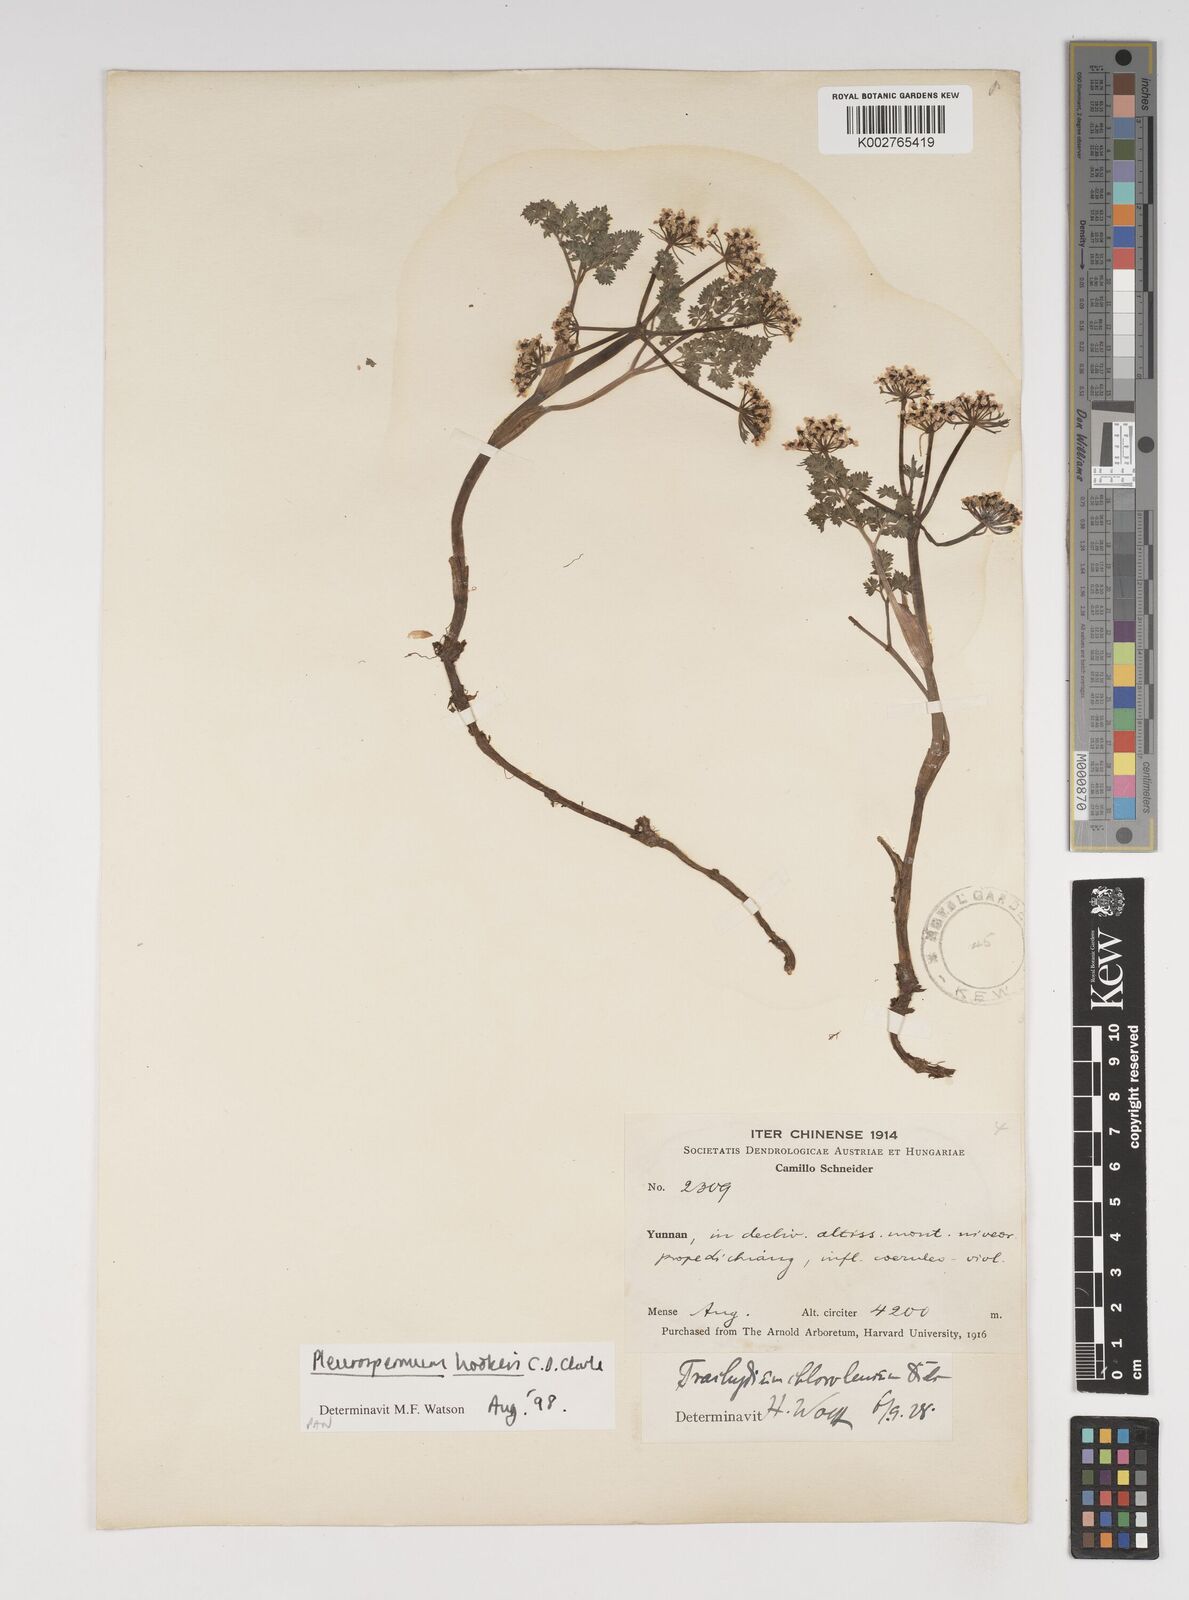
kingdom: Plantae
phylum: Tracheophyta
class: Magnoliopsida
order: Apiales
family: Apiaceae
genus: Pleurospermum
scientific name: Pleurospermum hookeri
